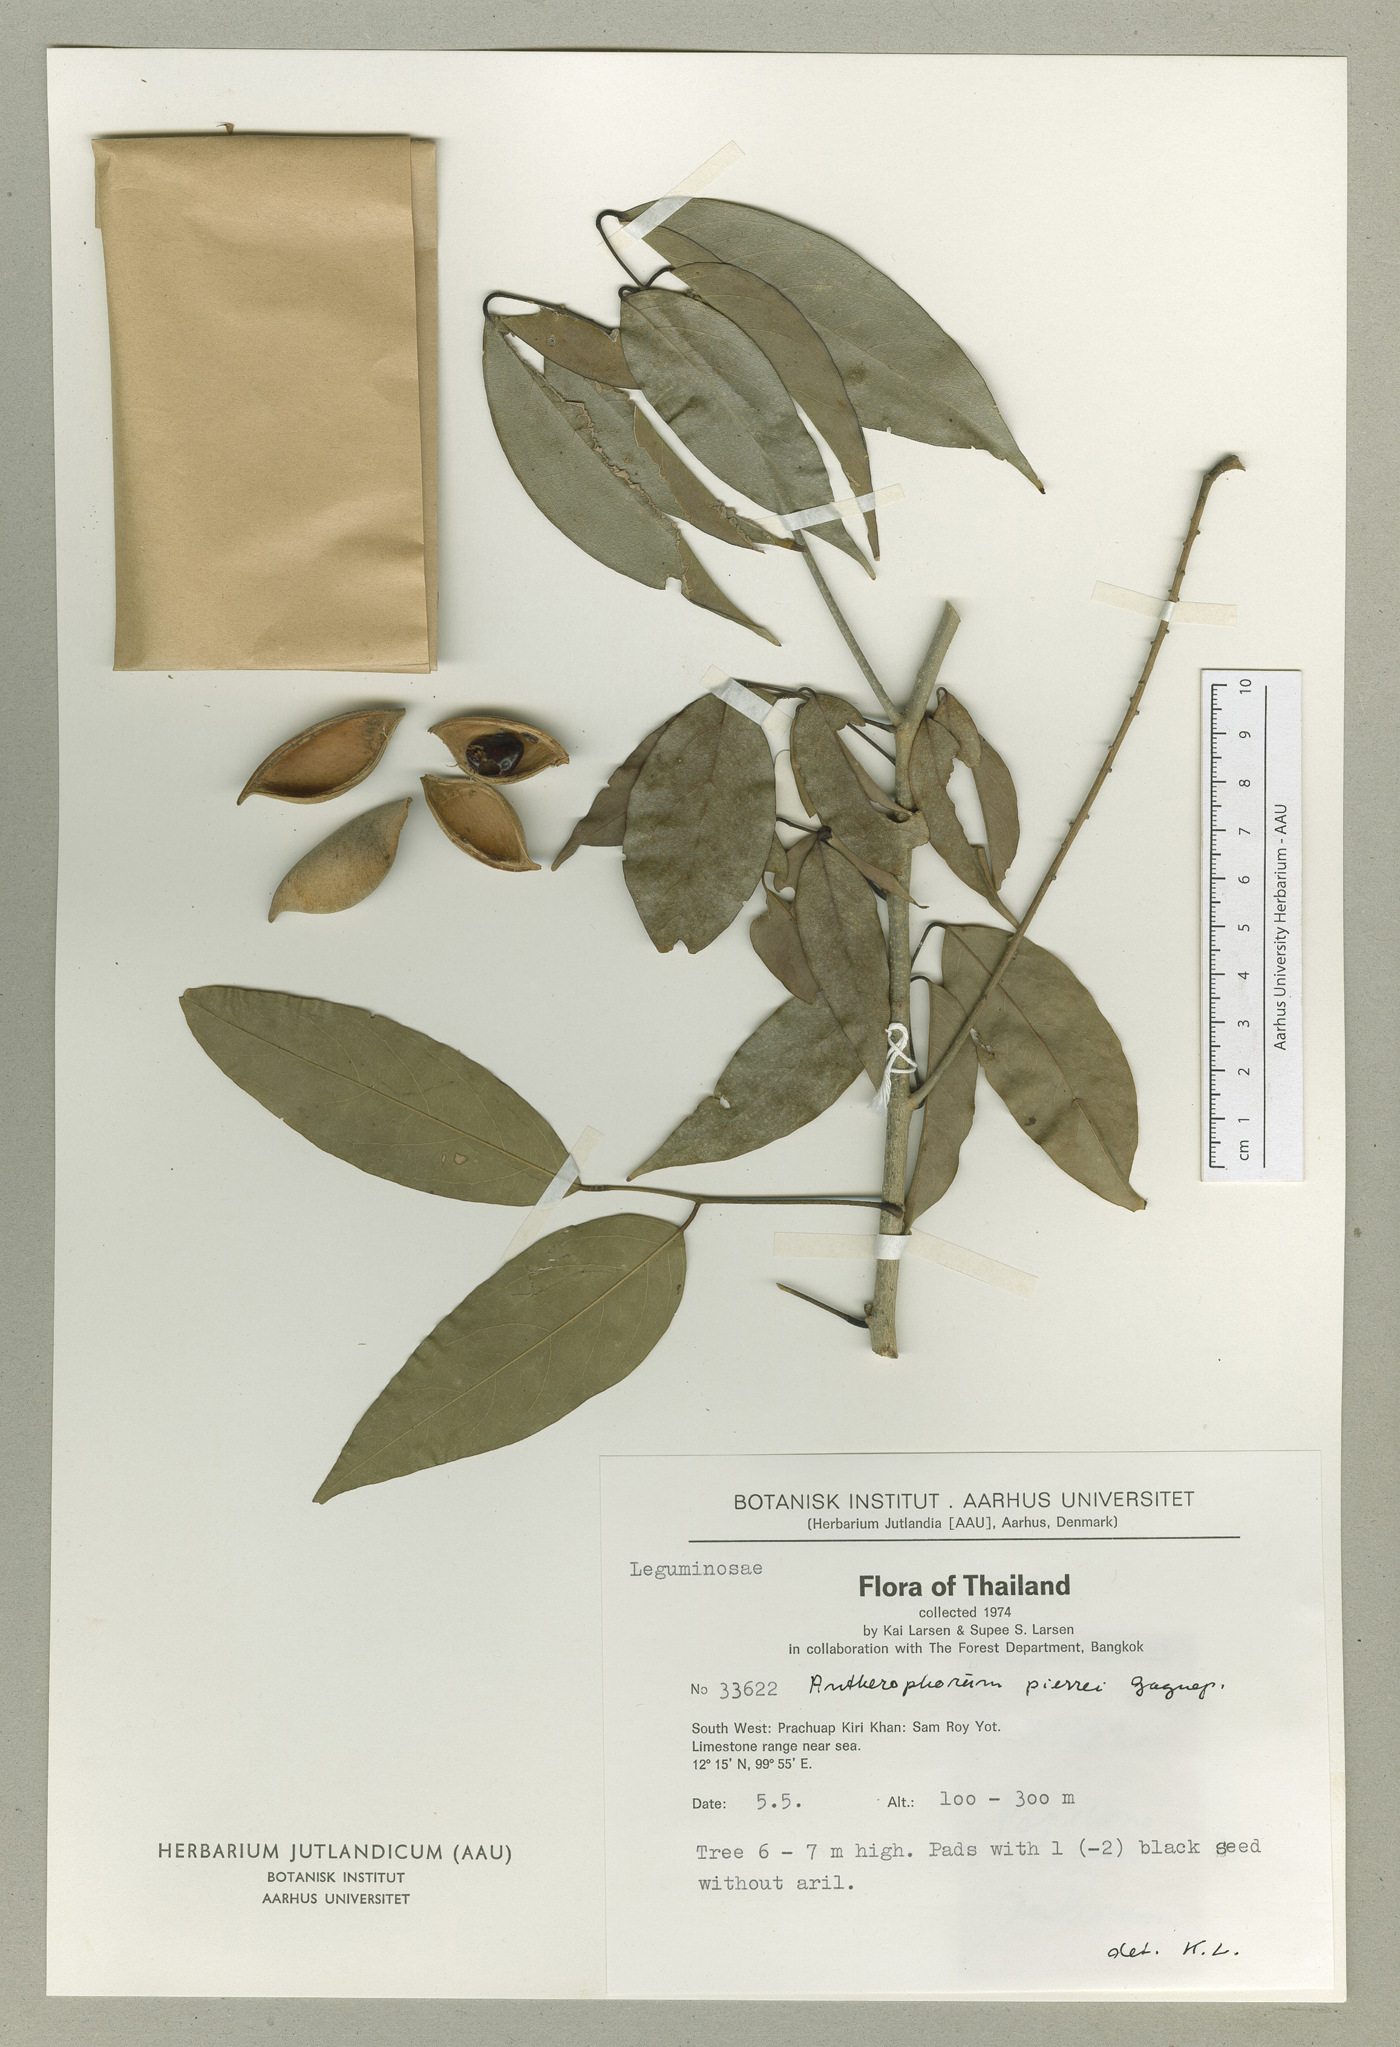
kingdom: Plantae
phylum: Tracheophyta
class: Magnoliopsida
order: Fabales
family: Fabaceae
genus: Antheroporum
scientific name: Antheroporum pierrei
